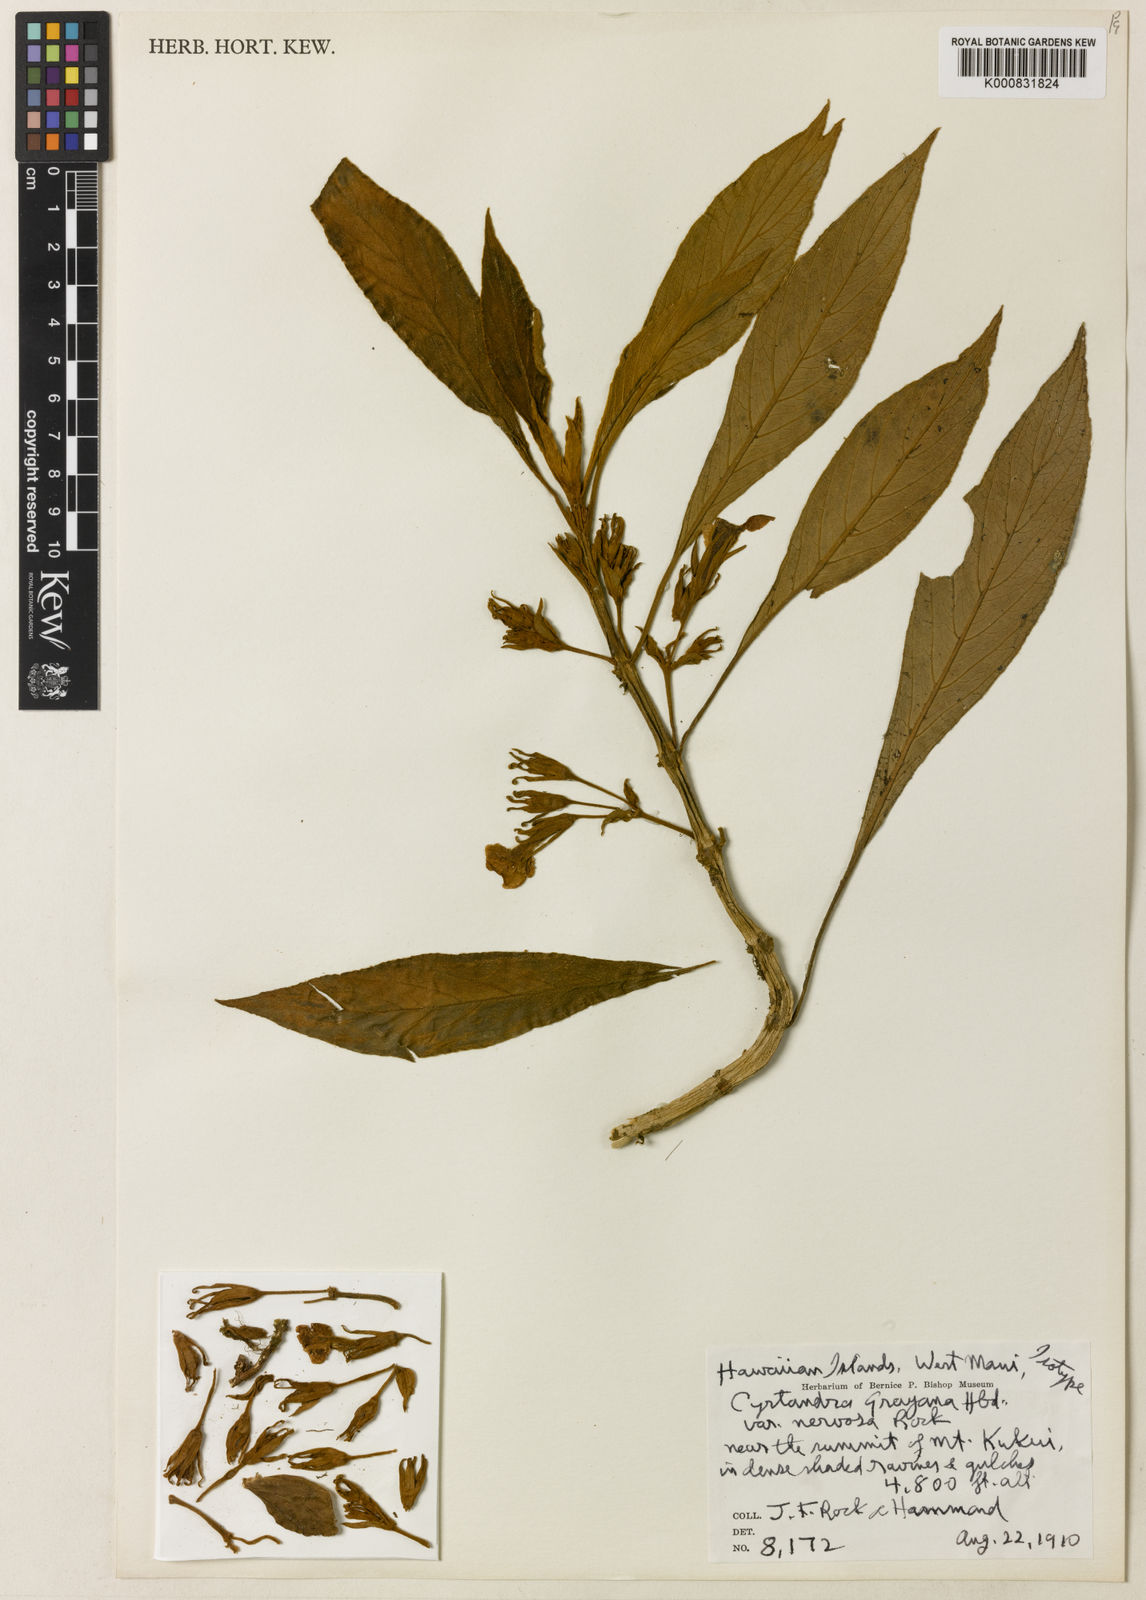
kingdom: Plantae
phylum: Tracheophyta
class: Magnoliopsida
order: Lamiales
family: Gesneriaceae
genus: Cyrtandra
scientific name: Cyrtandra grayana
